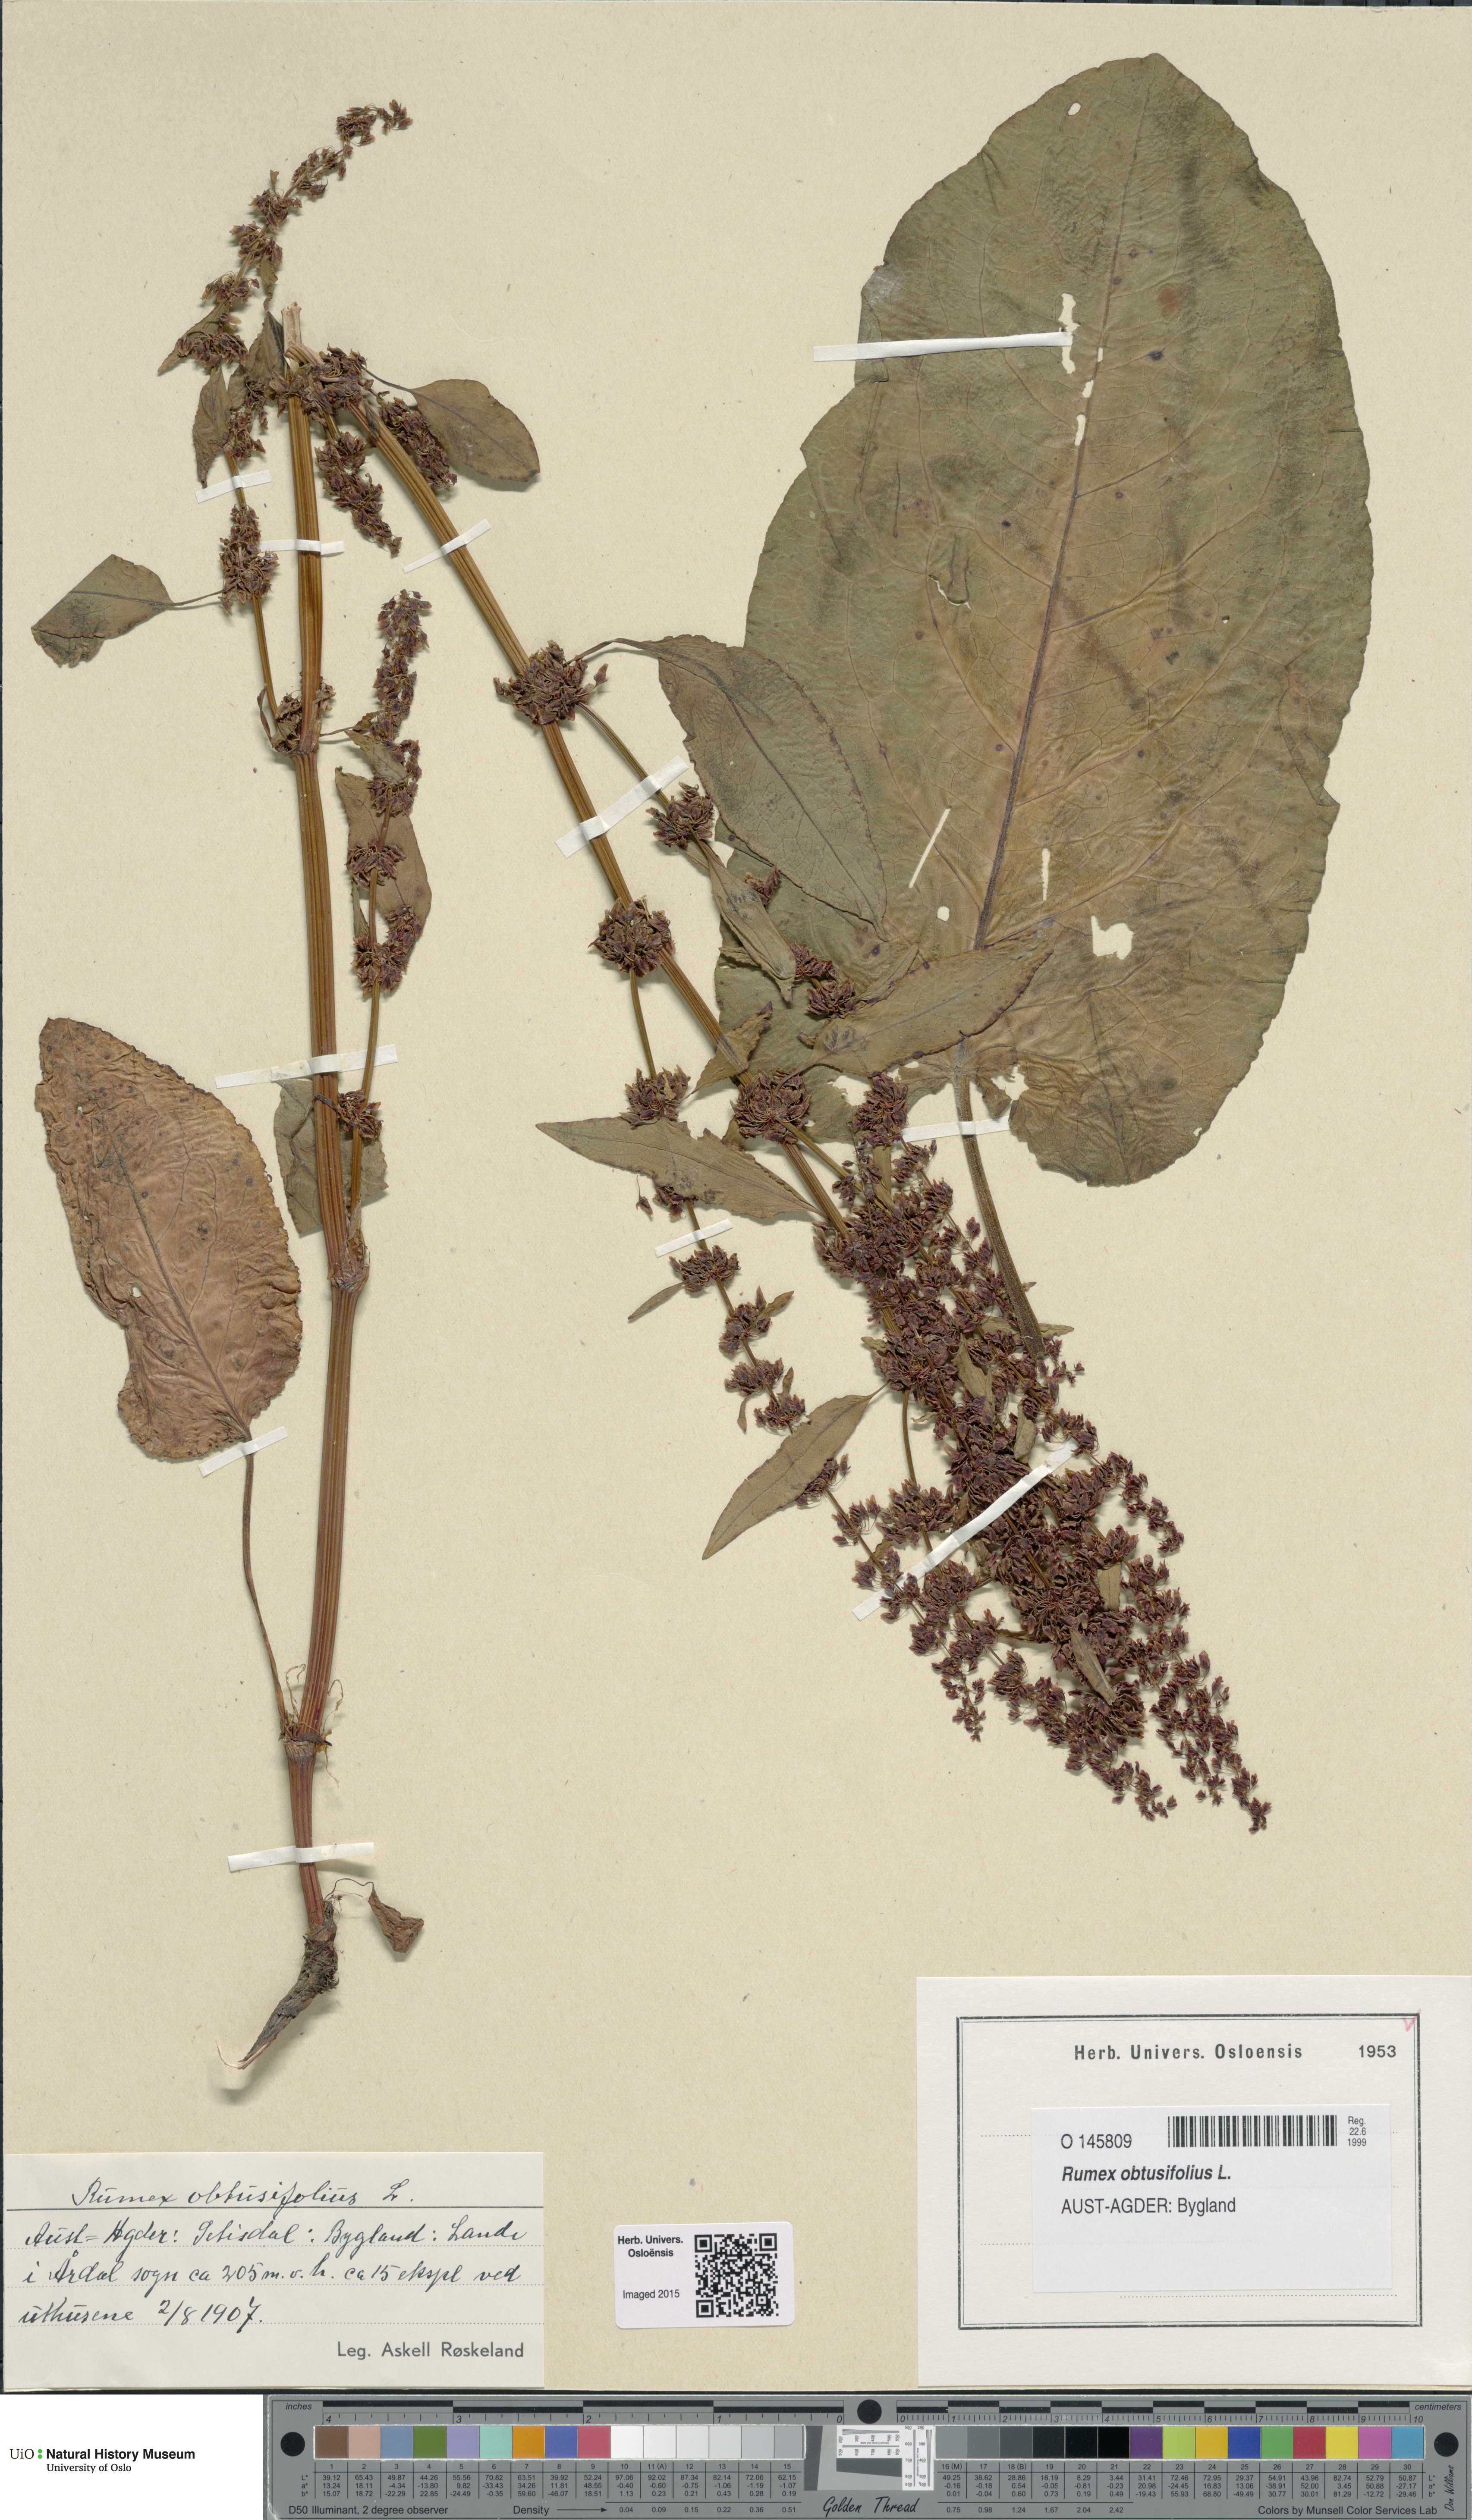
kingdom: Plantae
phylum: Tracheophyta
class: Magnoliopsida
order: Caryophyllales
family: Polygonaceae
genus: Rumex
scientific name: Rumex obtusifolius
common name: Bitter dock
